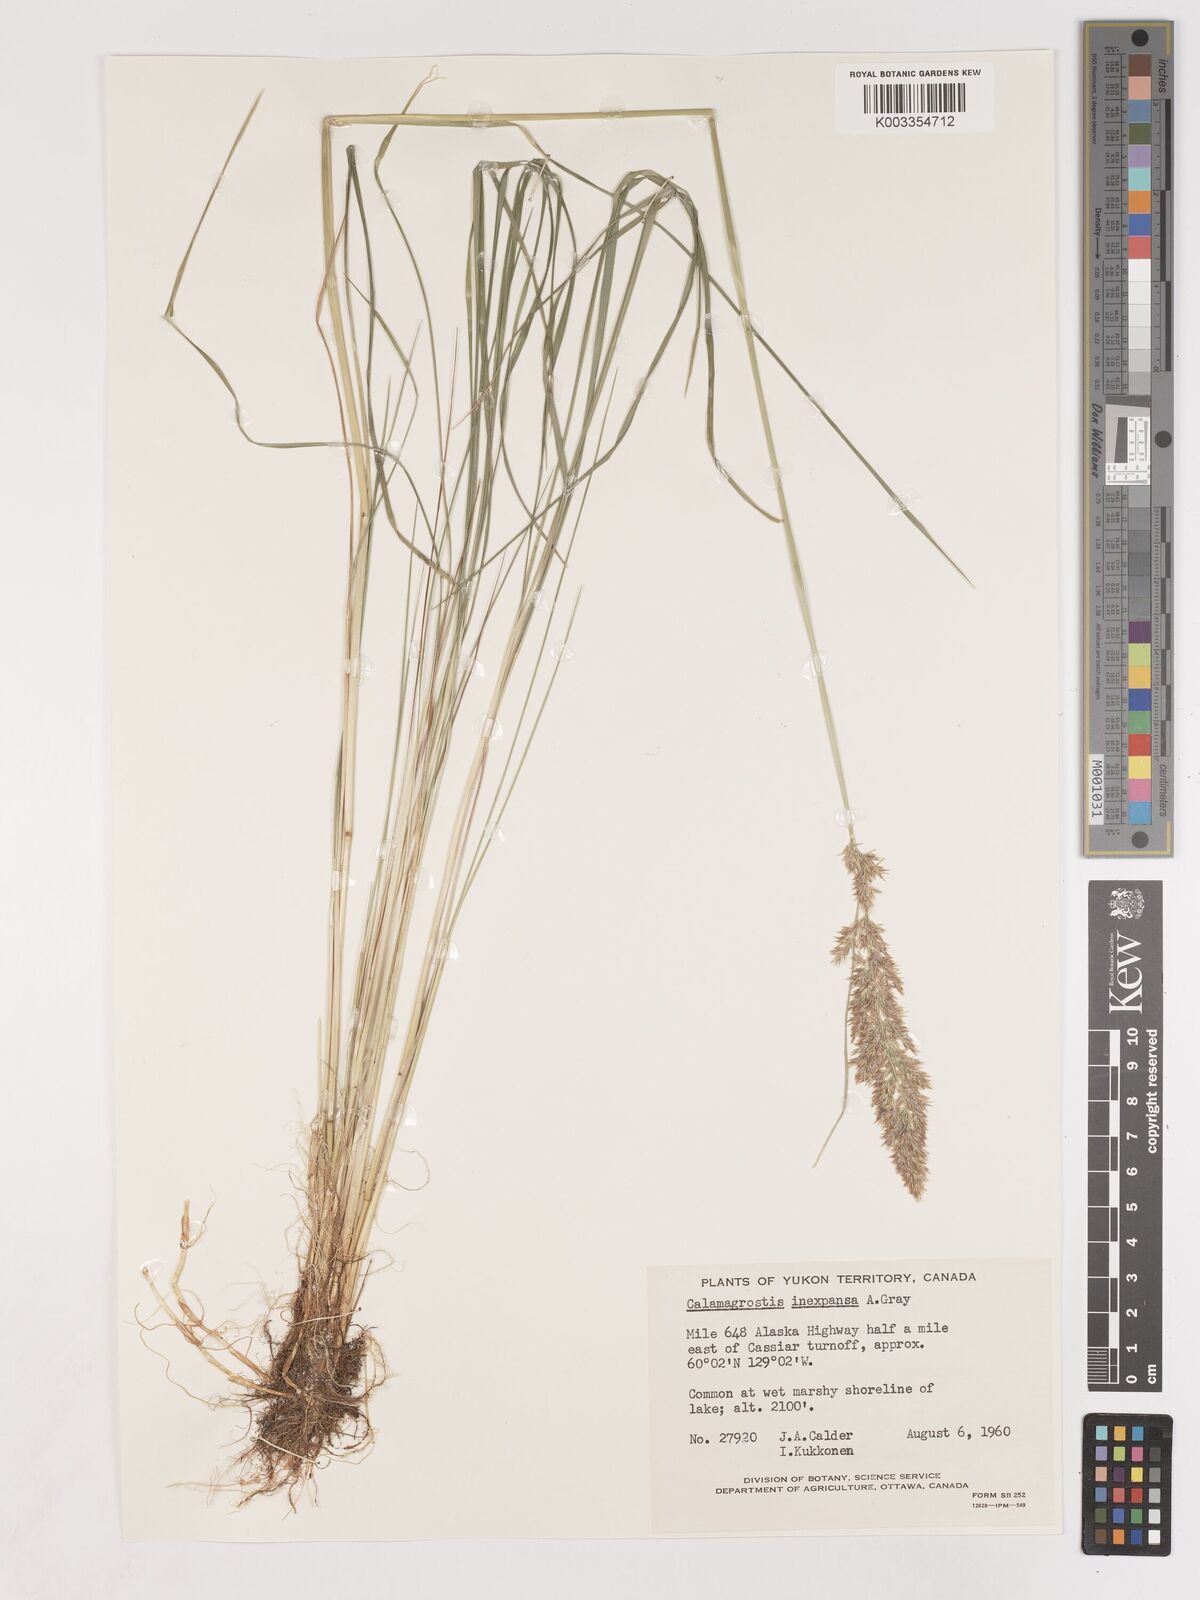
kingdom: Plantae
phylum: Tracheophyta
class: Liliopsida
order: Poales
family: Poaceae
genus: Cinnagrostis
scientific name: Cinnagrostis recta
